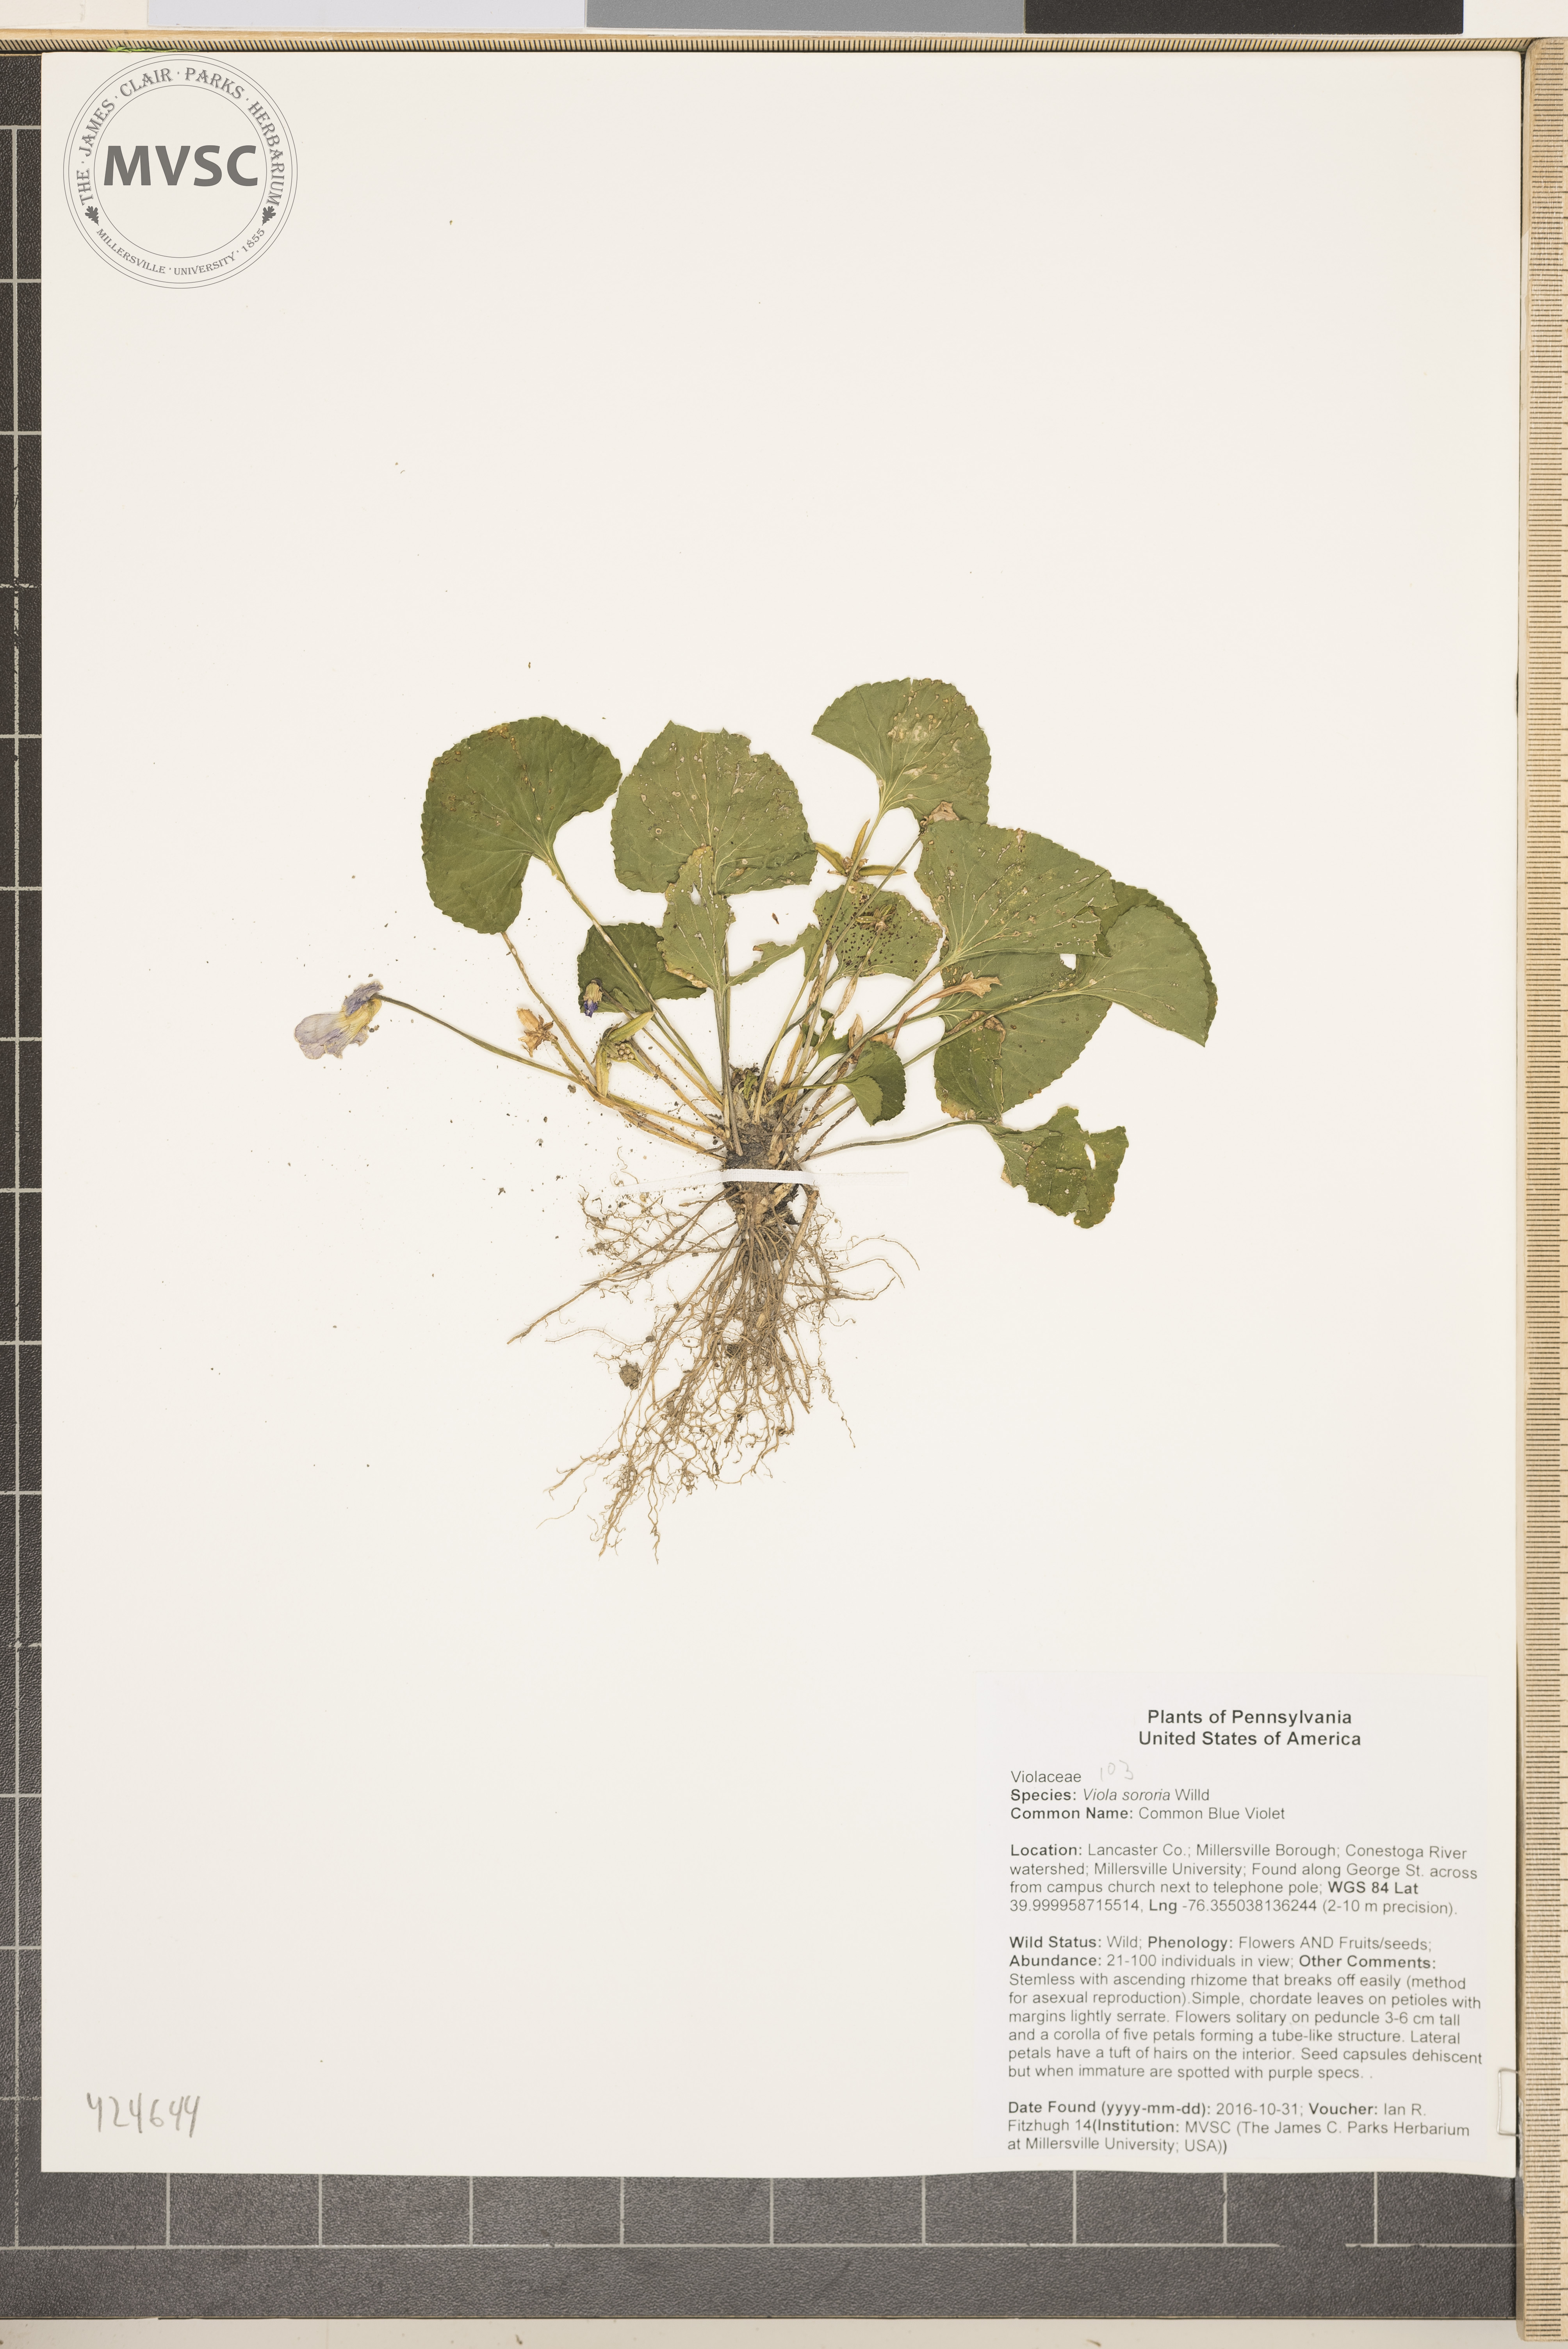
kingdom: Plantae
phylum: Tracheophyta
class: Magnoliopsida
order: Malpighiales
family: Violaceae
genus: Viola
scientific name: Viola sororia
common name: Common Blue Violet
